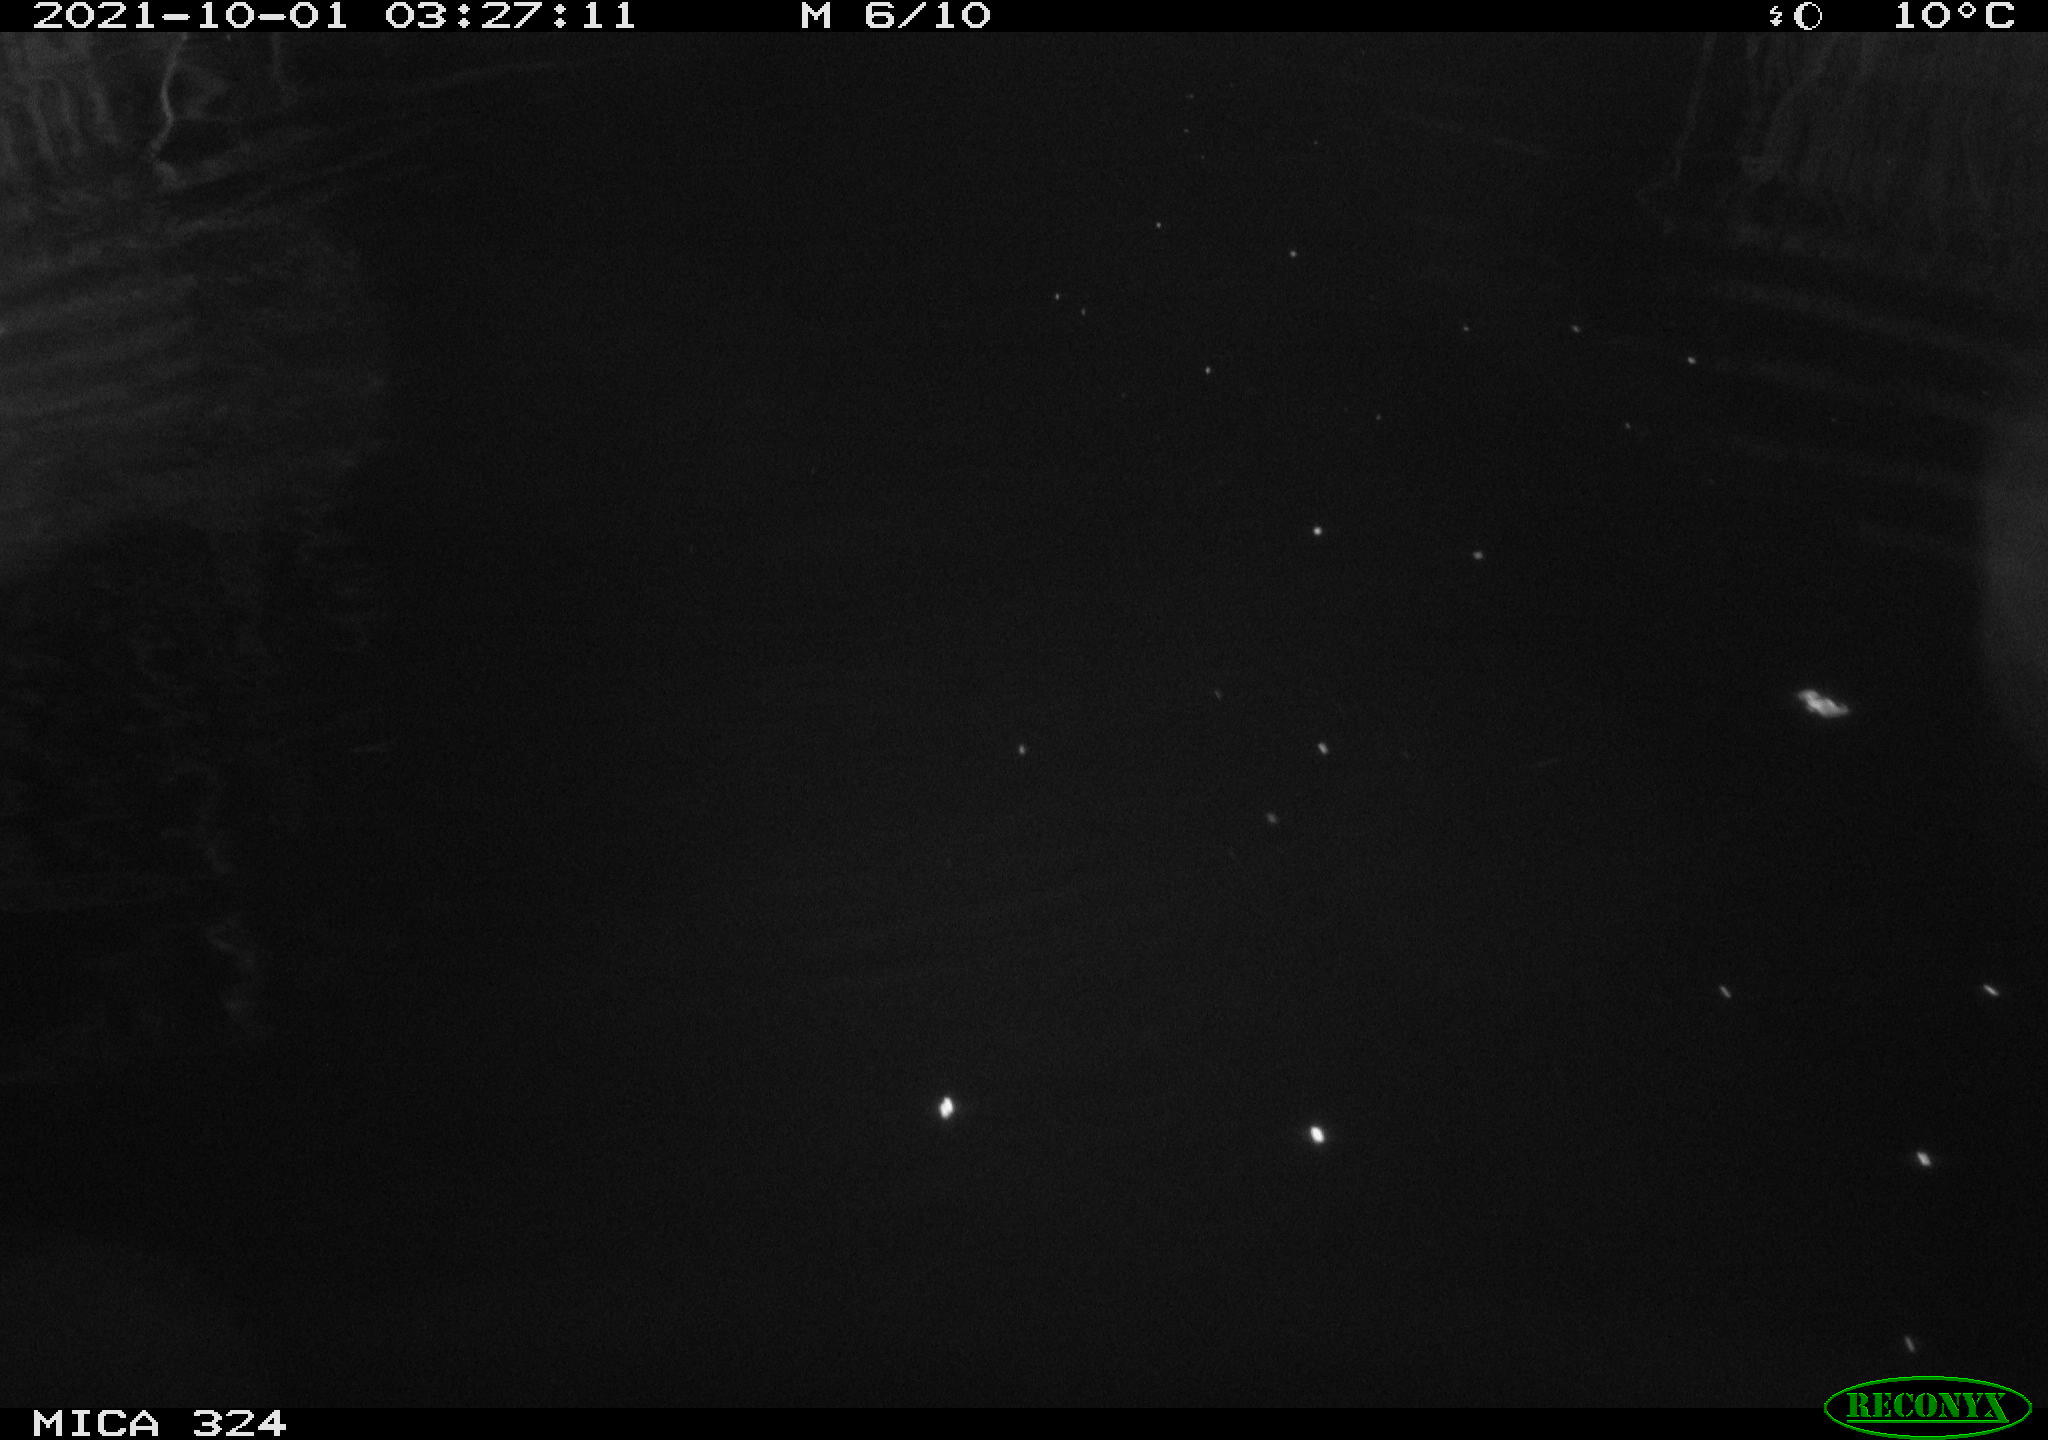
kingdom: Animalia
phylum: Chordata
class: Mammalia
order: Rodentia
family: Cricetidae
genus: Ondatra
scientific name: Ondatra zibethicus
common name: Muskrat
